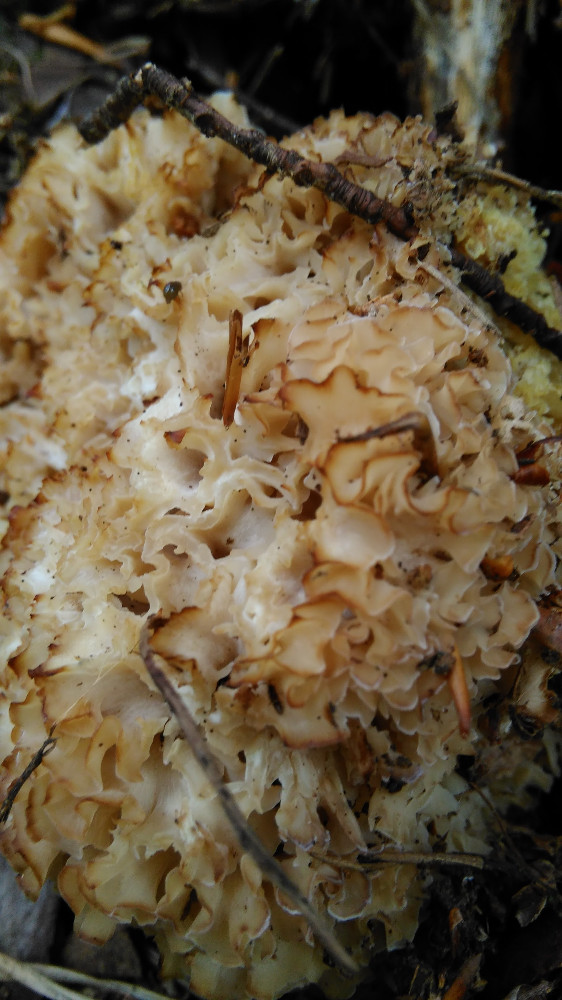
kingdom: Fungi
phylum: Basidiomycota
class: Agaricomycetes
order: Polyporales
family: Sparassidaceae
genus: Sparassis
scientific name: Sparassis crispa
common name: kruset blomkålssvamp
